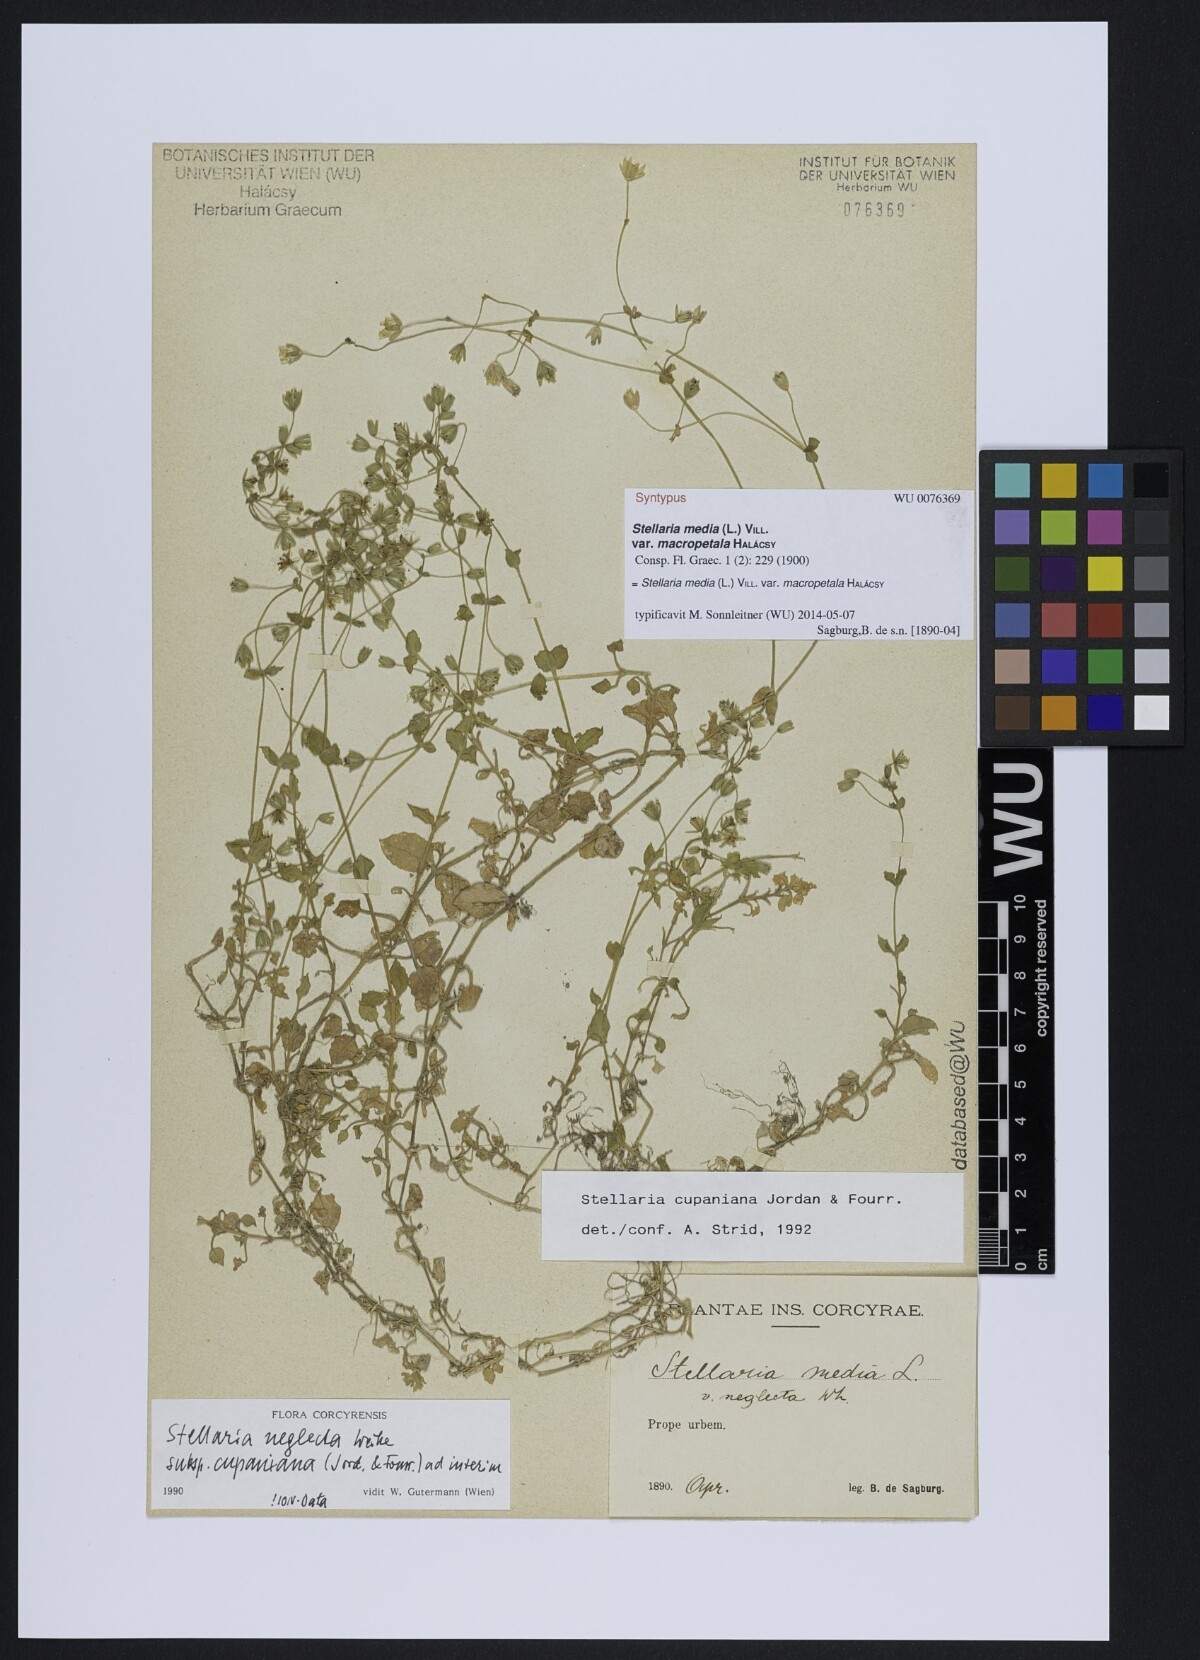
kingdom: Plantae
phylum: Tracheophyta
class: Magnoliopsida
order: Caryophyllales
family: Caryophyllaceae
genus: Stellaria
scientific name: Stellaria cupaniana
